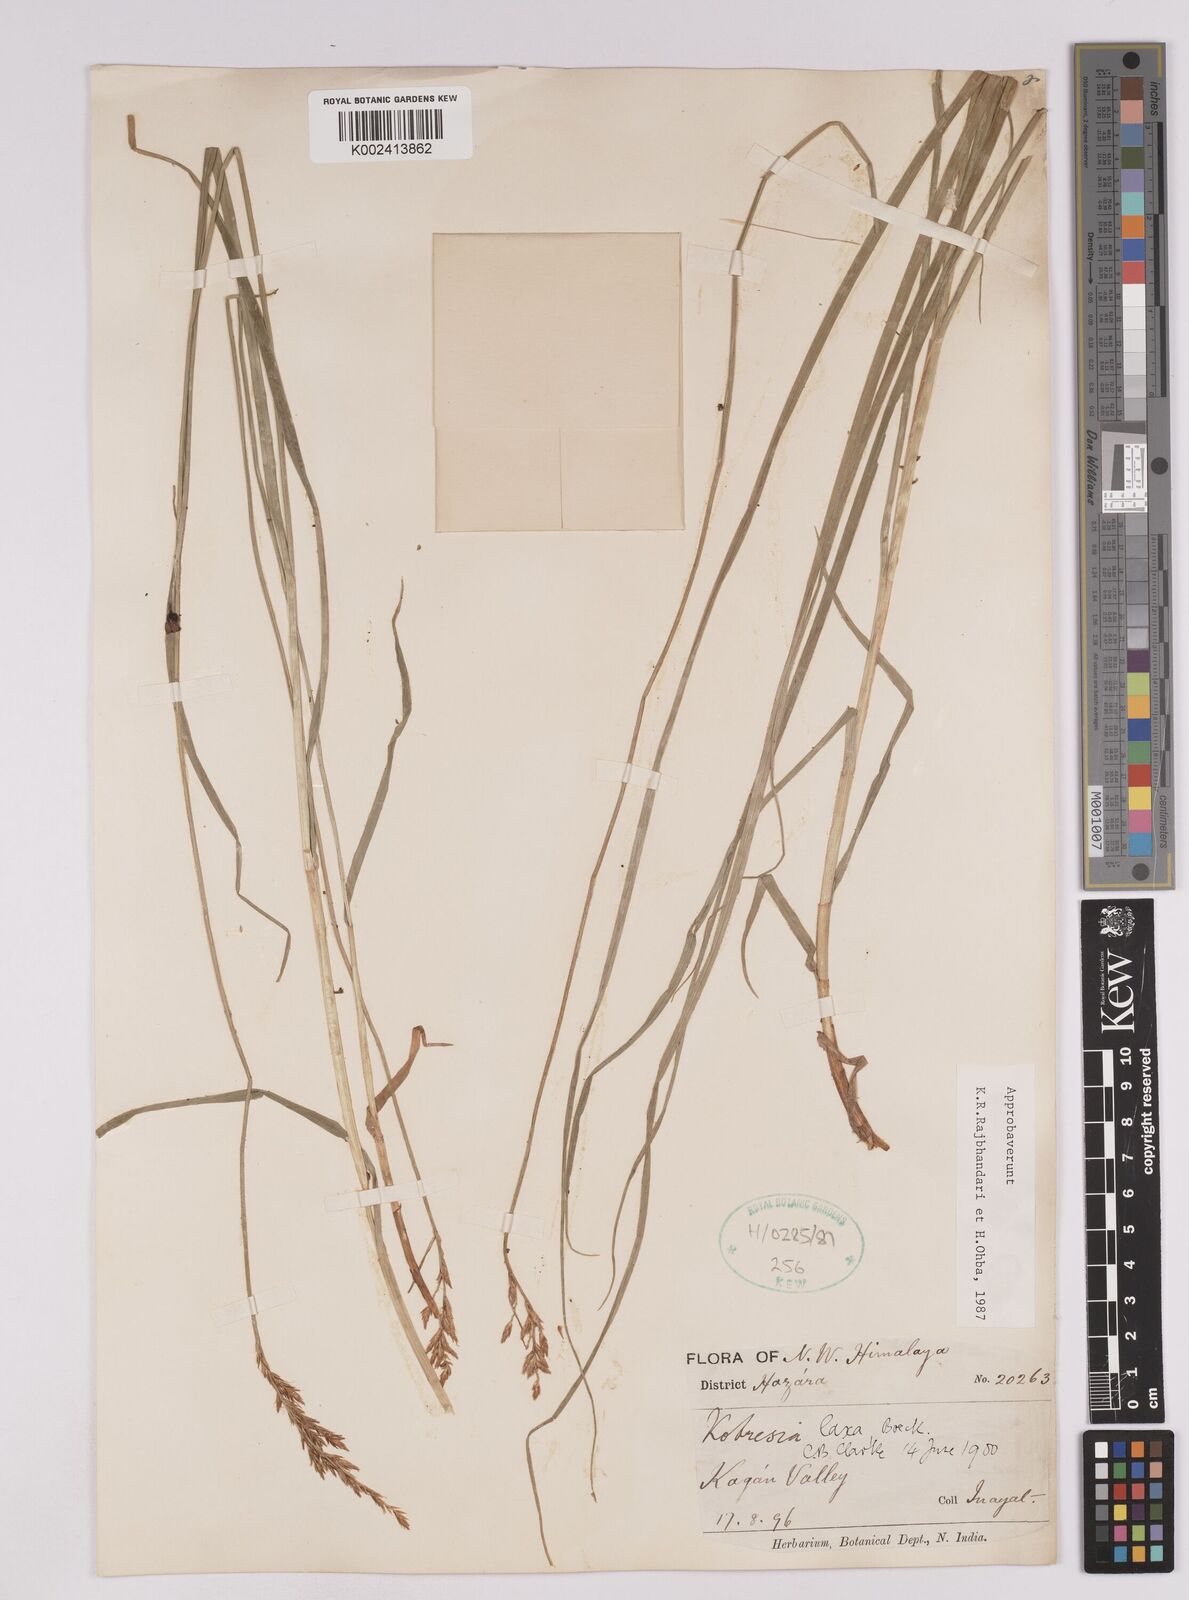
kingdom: Plantae
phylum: Tracheophyta
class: Liliopsida
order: Poales
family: Cyperaceae
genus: Carex
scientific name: Carex pseudolaxa
